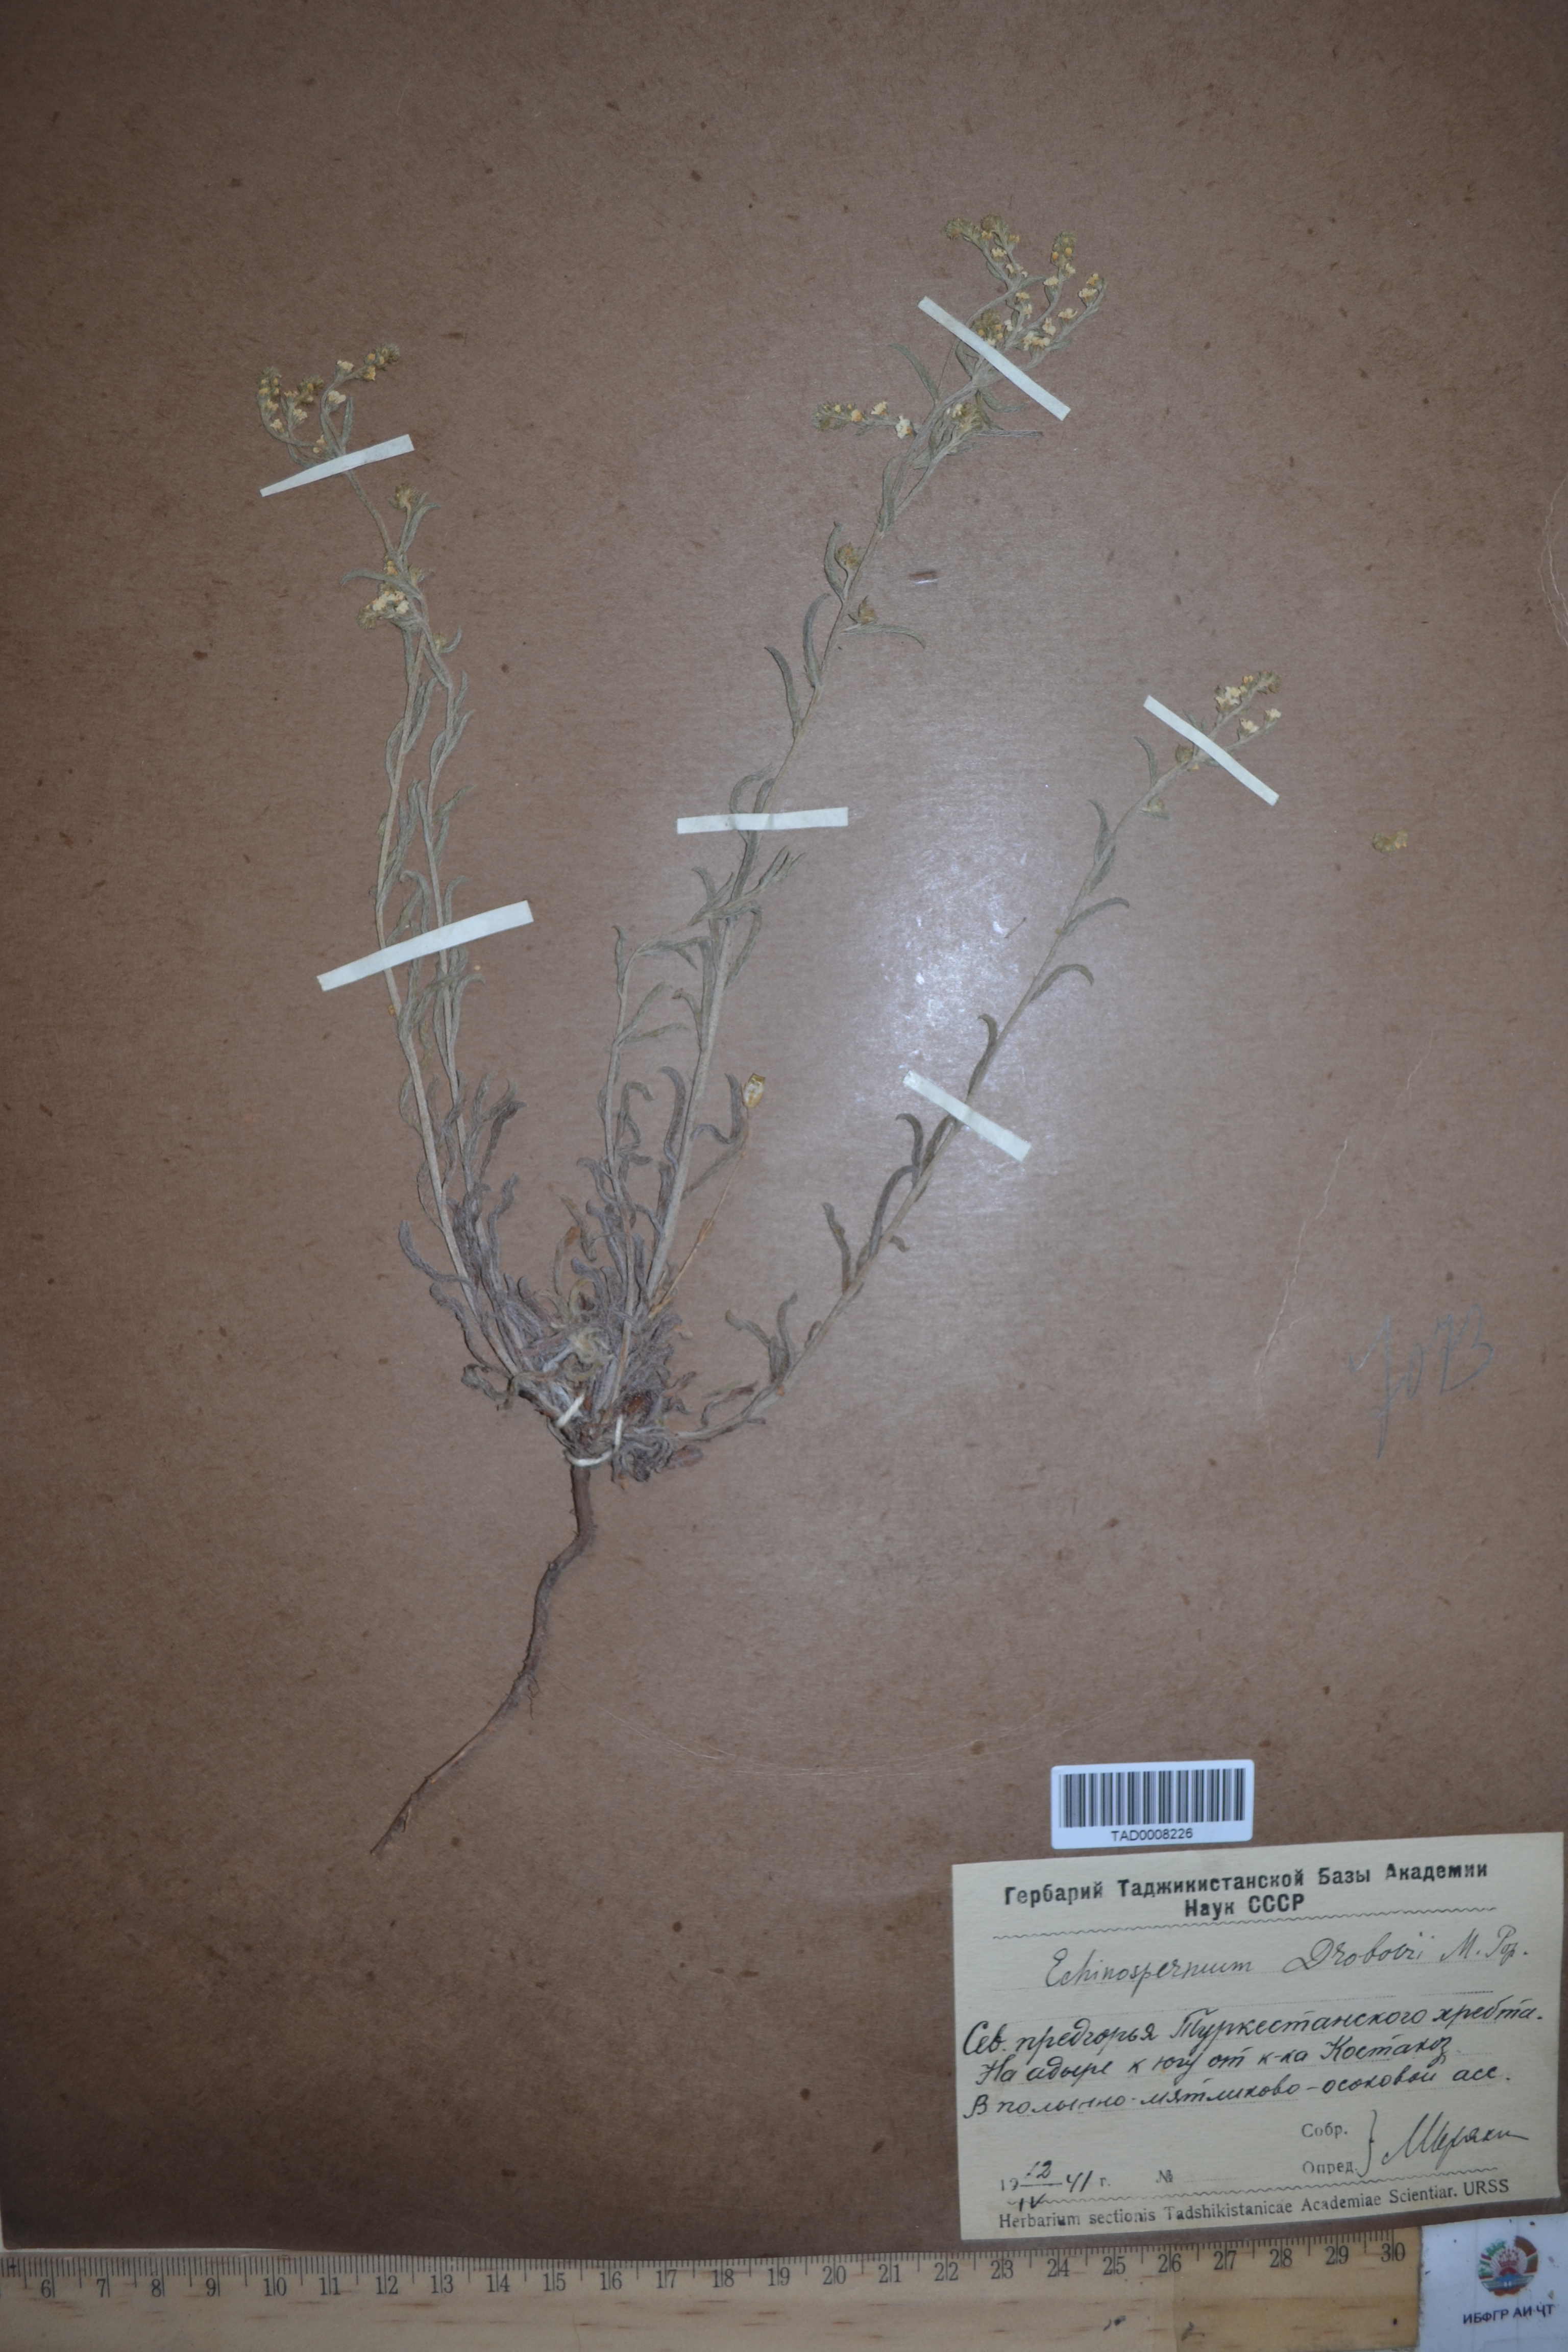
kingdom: Plantae
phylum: Tracheophyta
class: Magnoliopsida
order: Boraginales
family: Boraginaceae
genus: Rochelia
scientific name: Rochelia drobovii
